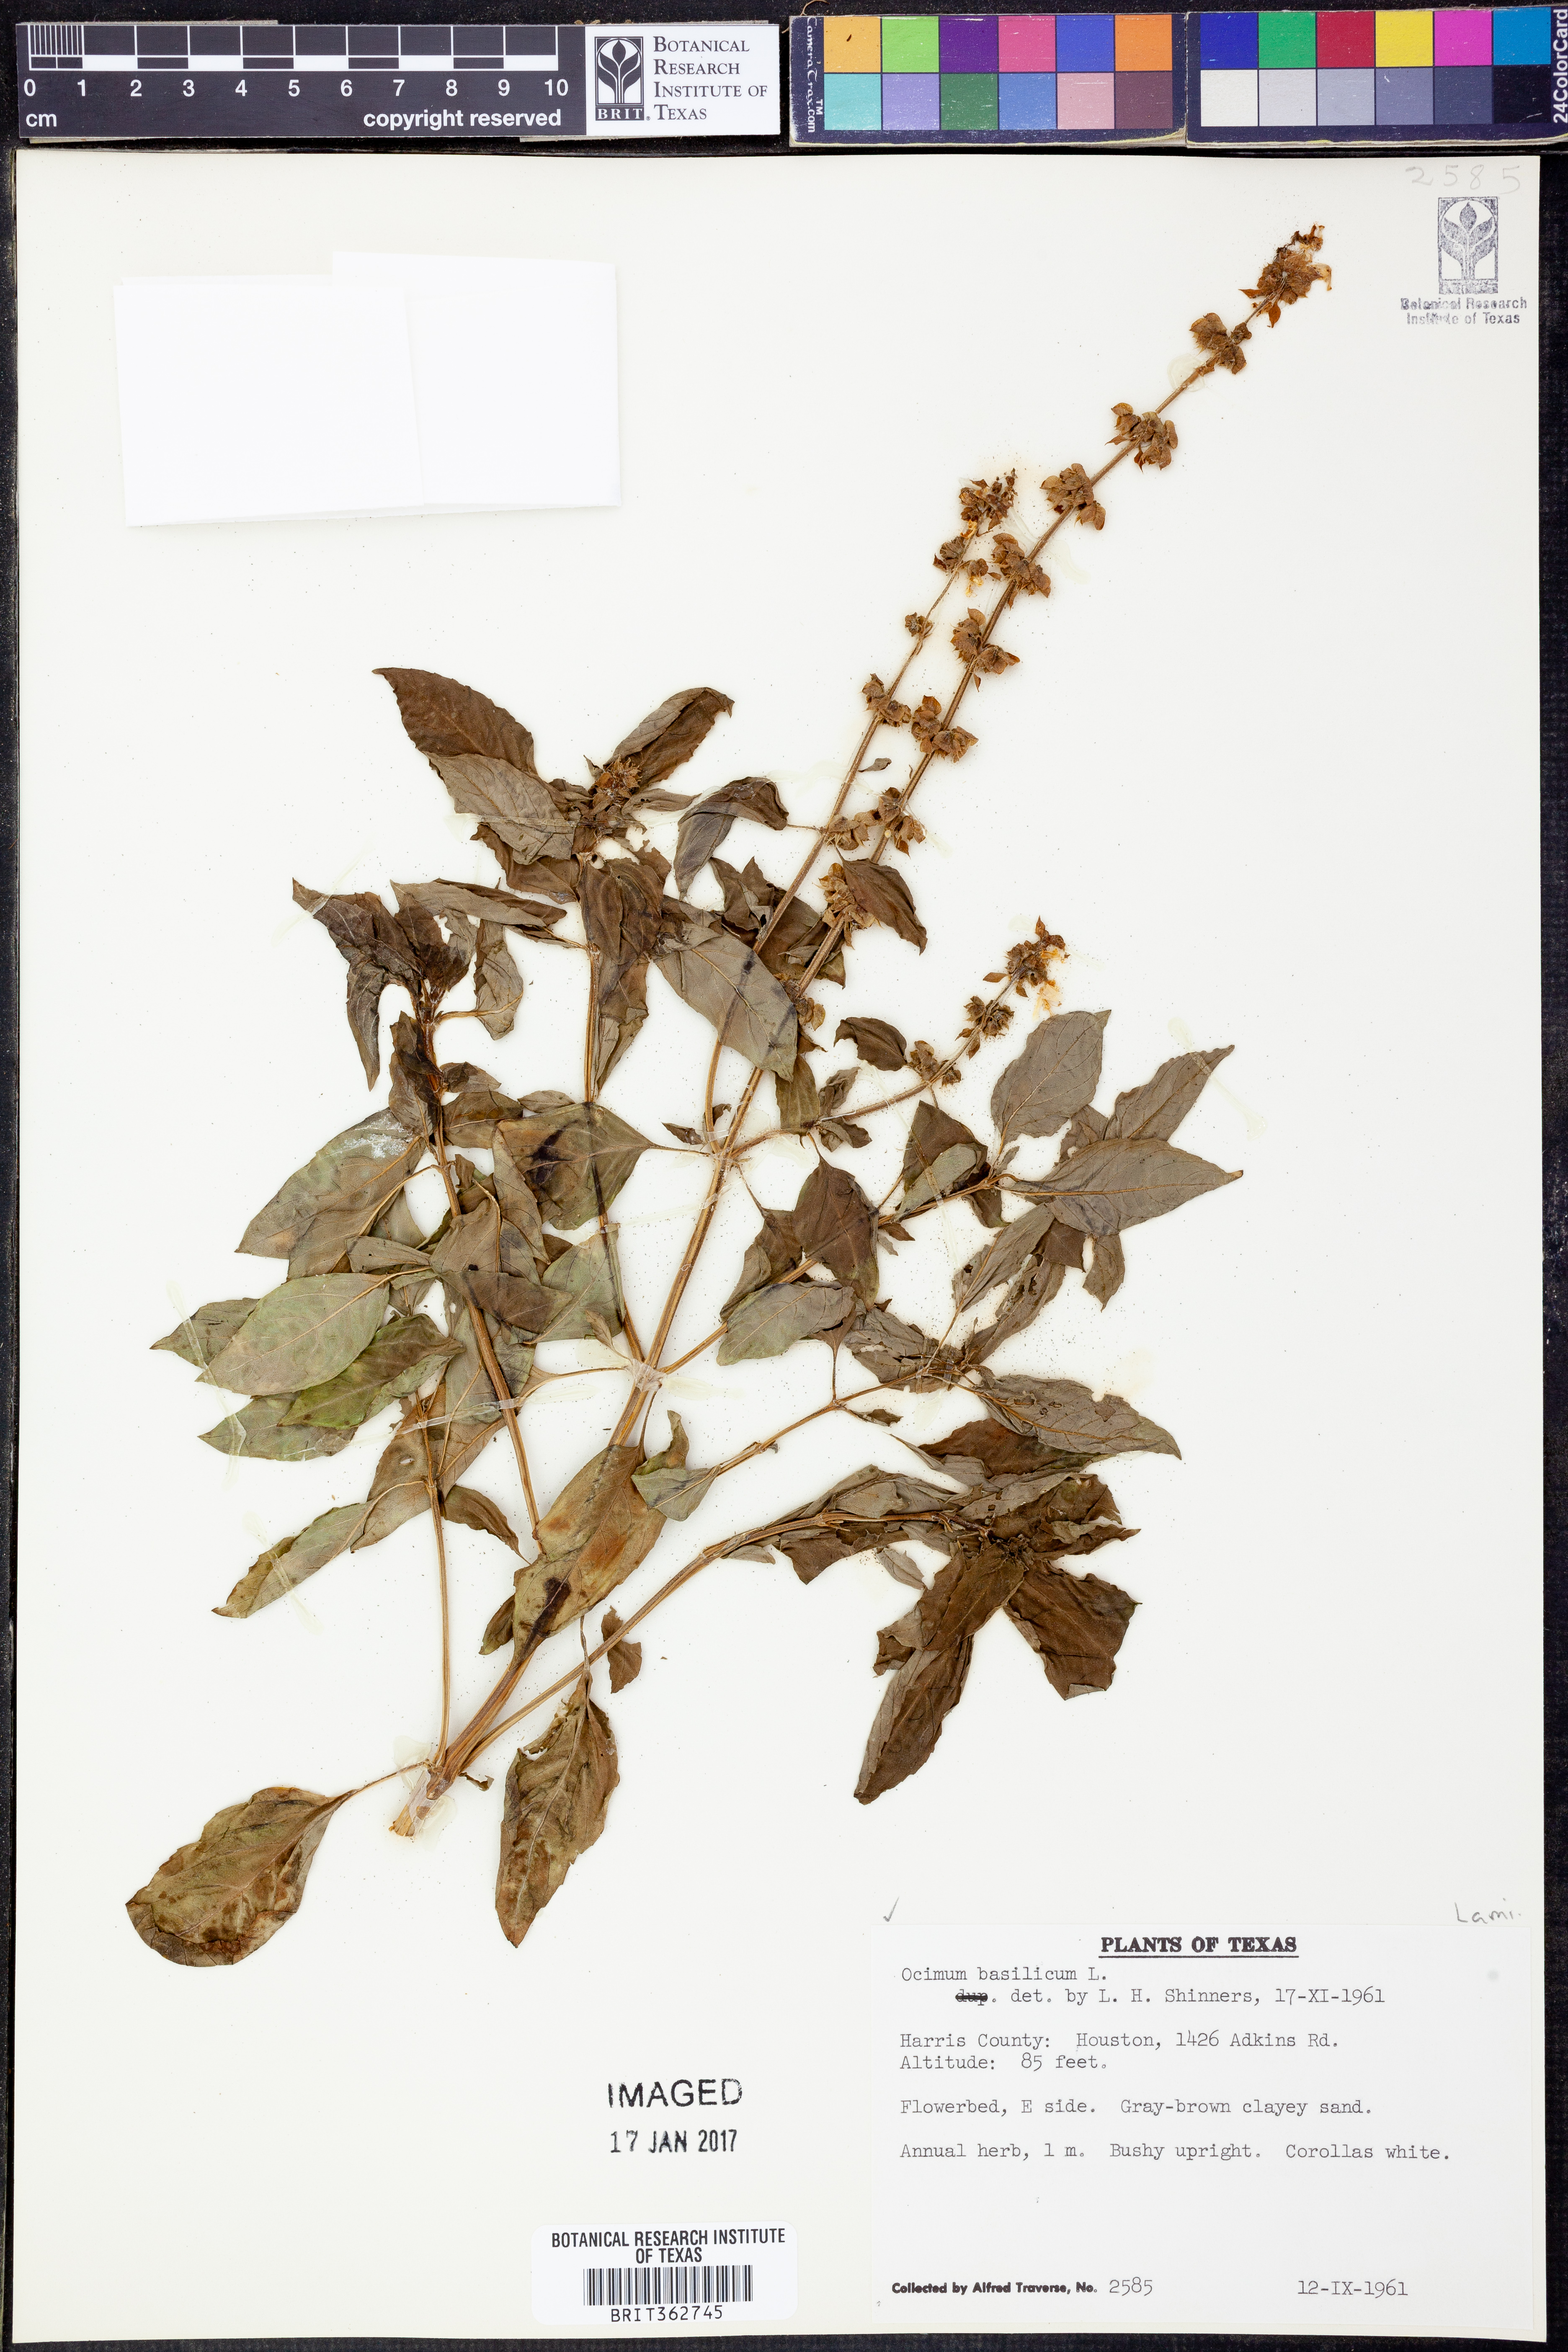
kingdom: Plantae
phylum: Tracheophyta
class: Magnoliopsida
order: Lamiales
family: Lamiaceae
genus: Ocimum
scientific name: Ocimum basilicum
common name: Sweet basil
